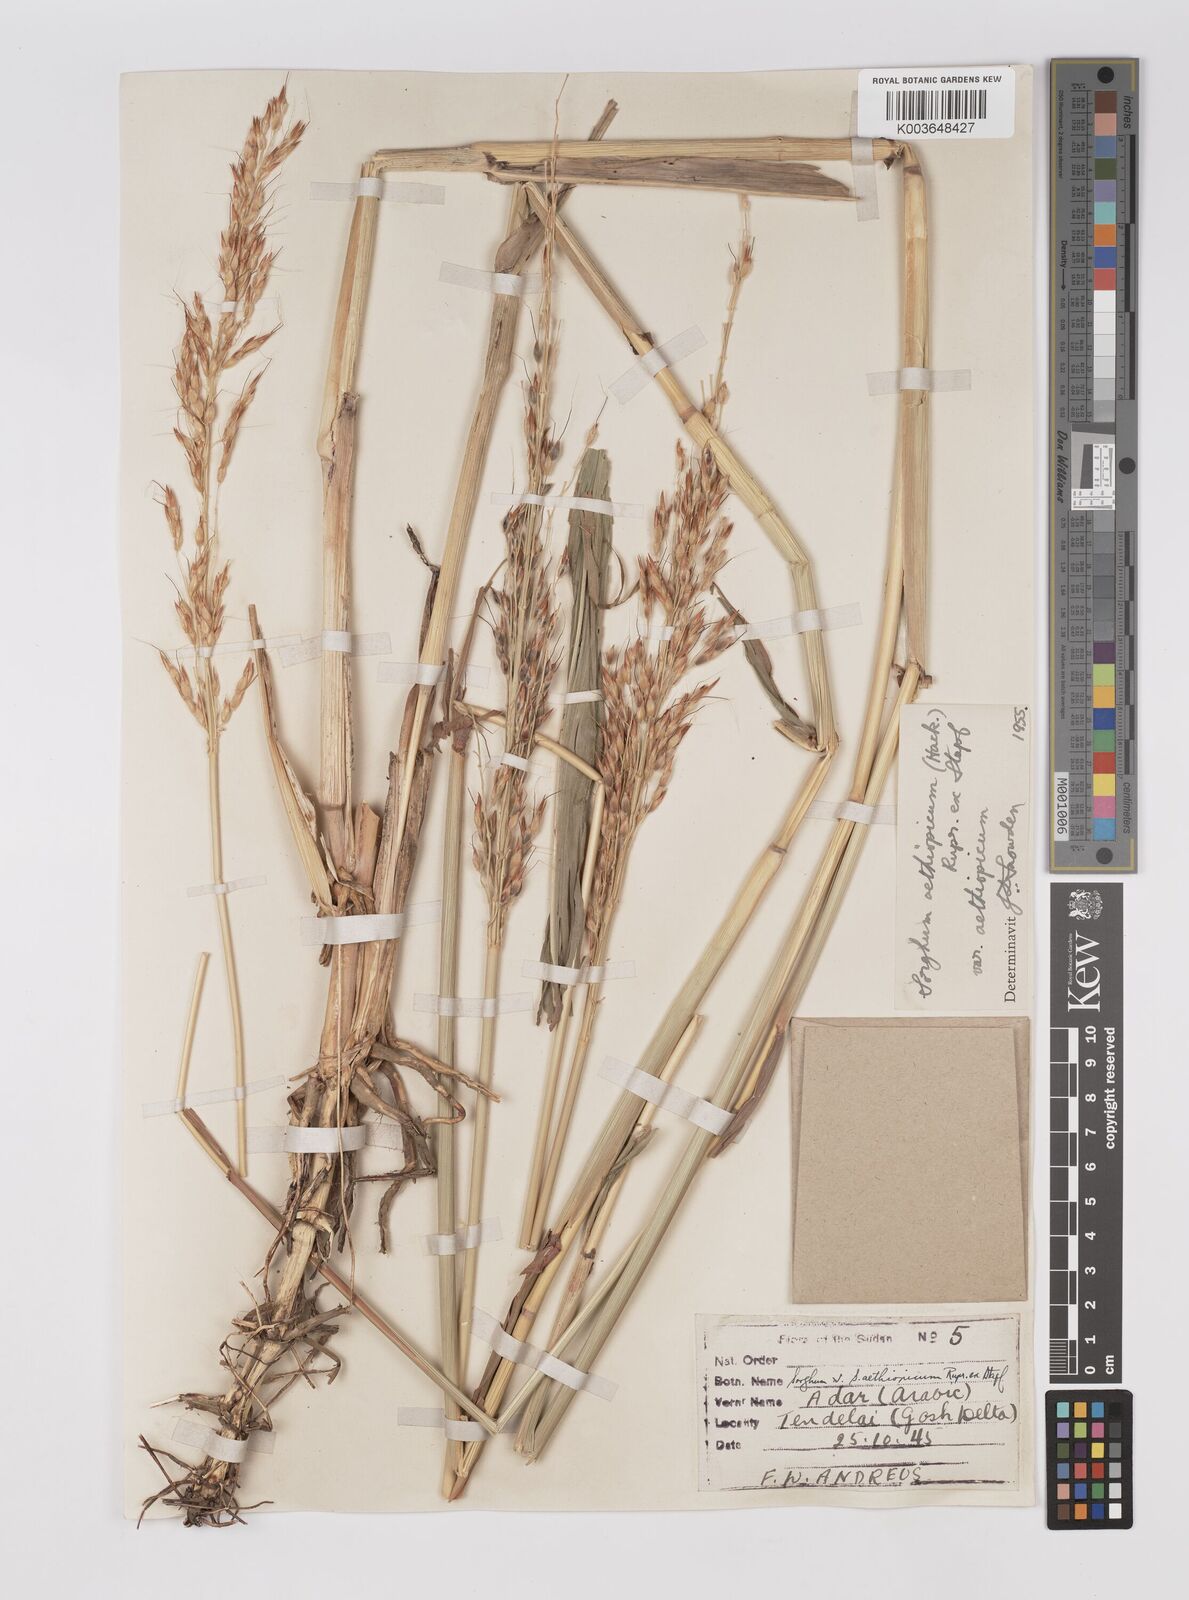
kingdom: Plantae
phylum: Tracheophyta
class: Liliopsida
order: Poales
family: Poaceae
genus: Sorghum
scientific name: Sorghum arundinaceum
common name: Sorghum
